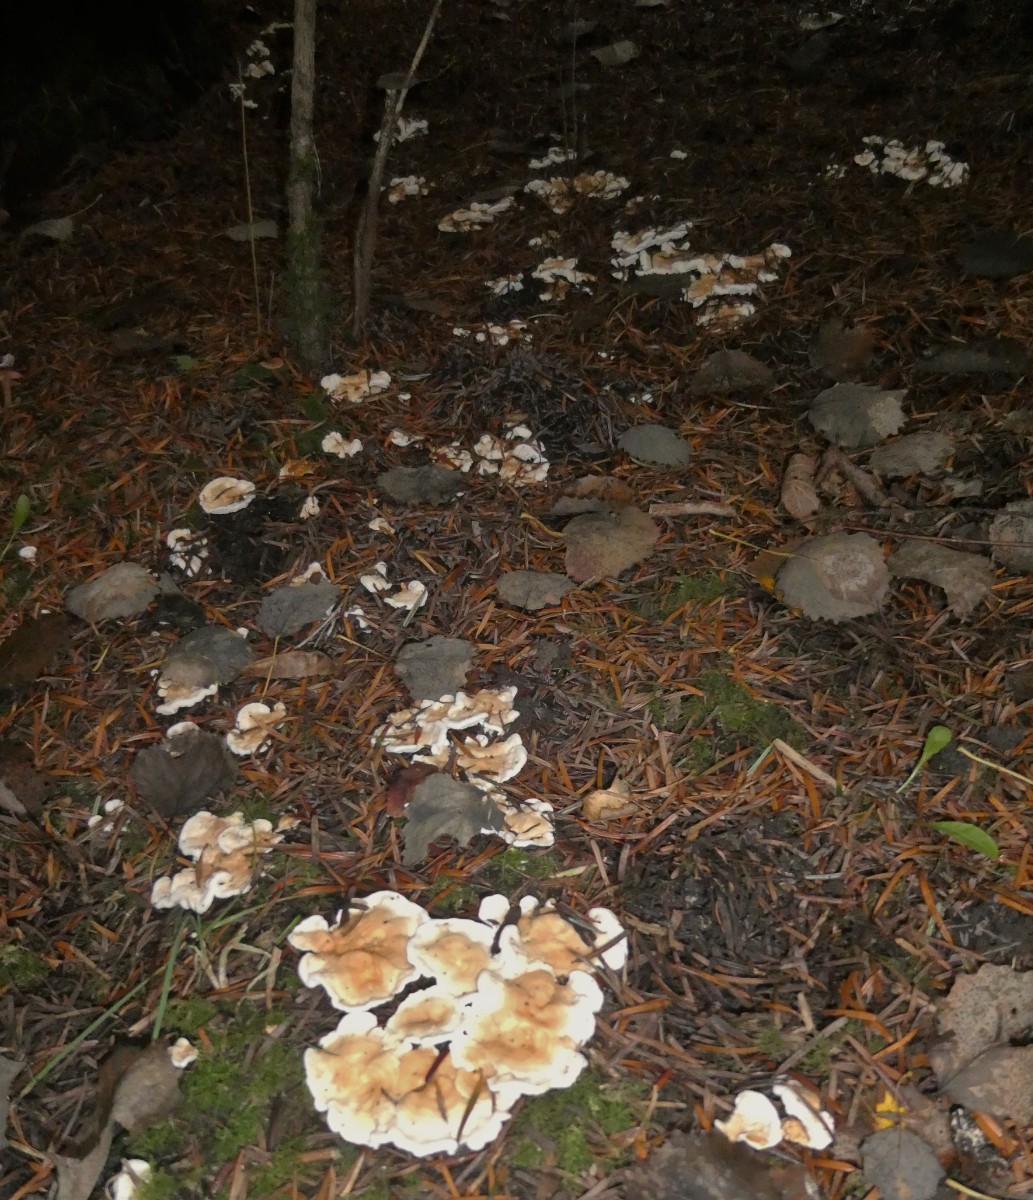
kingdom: Fungi
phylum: Basidiomycota
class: Agaricomycetes
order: Cantharellales
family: Hydnaceae
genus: Sistotrema
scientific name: Sistotrema confluens
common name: stilket kroneskorpe
